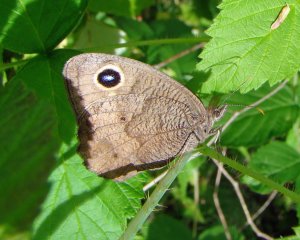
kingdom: Animalia
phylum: Arthropoda
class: Insecta
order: Lepidoptera
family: Nymphalidae
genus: Cercyonis
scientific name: Cercyonis pegala
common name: Common Wood-Nymph
